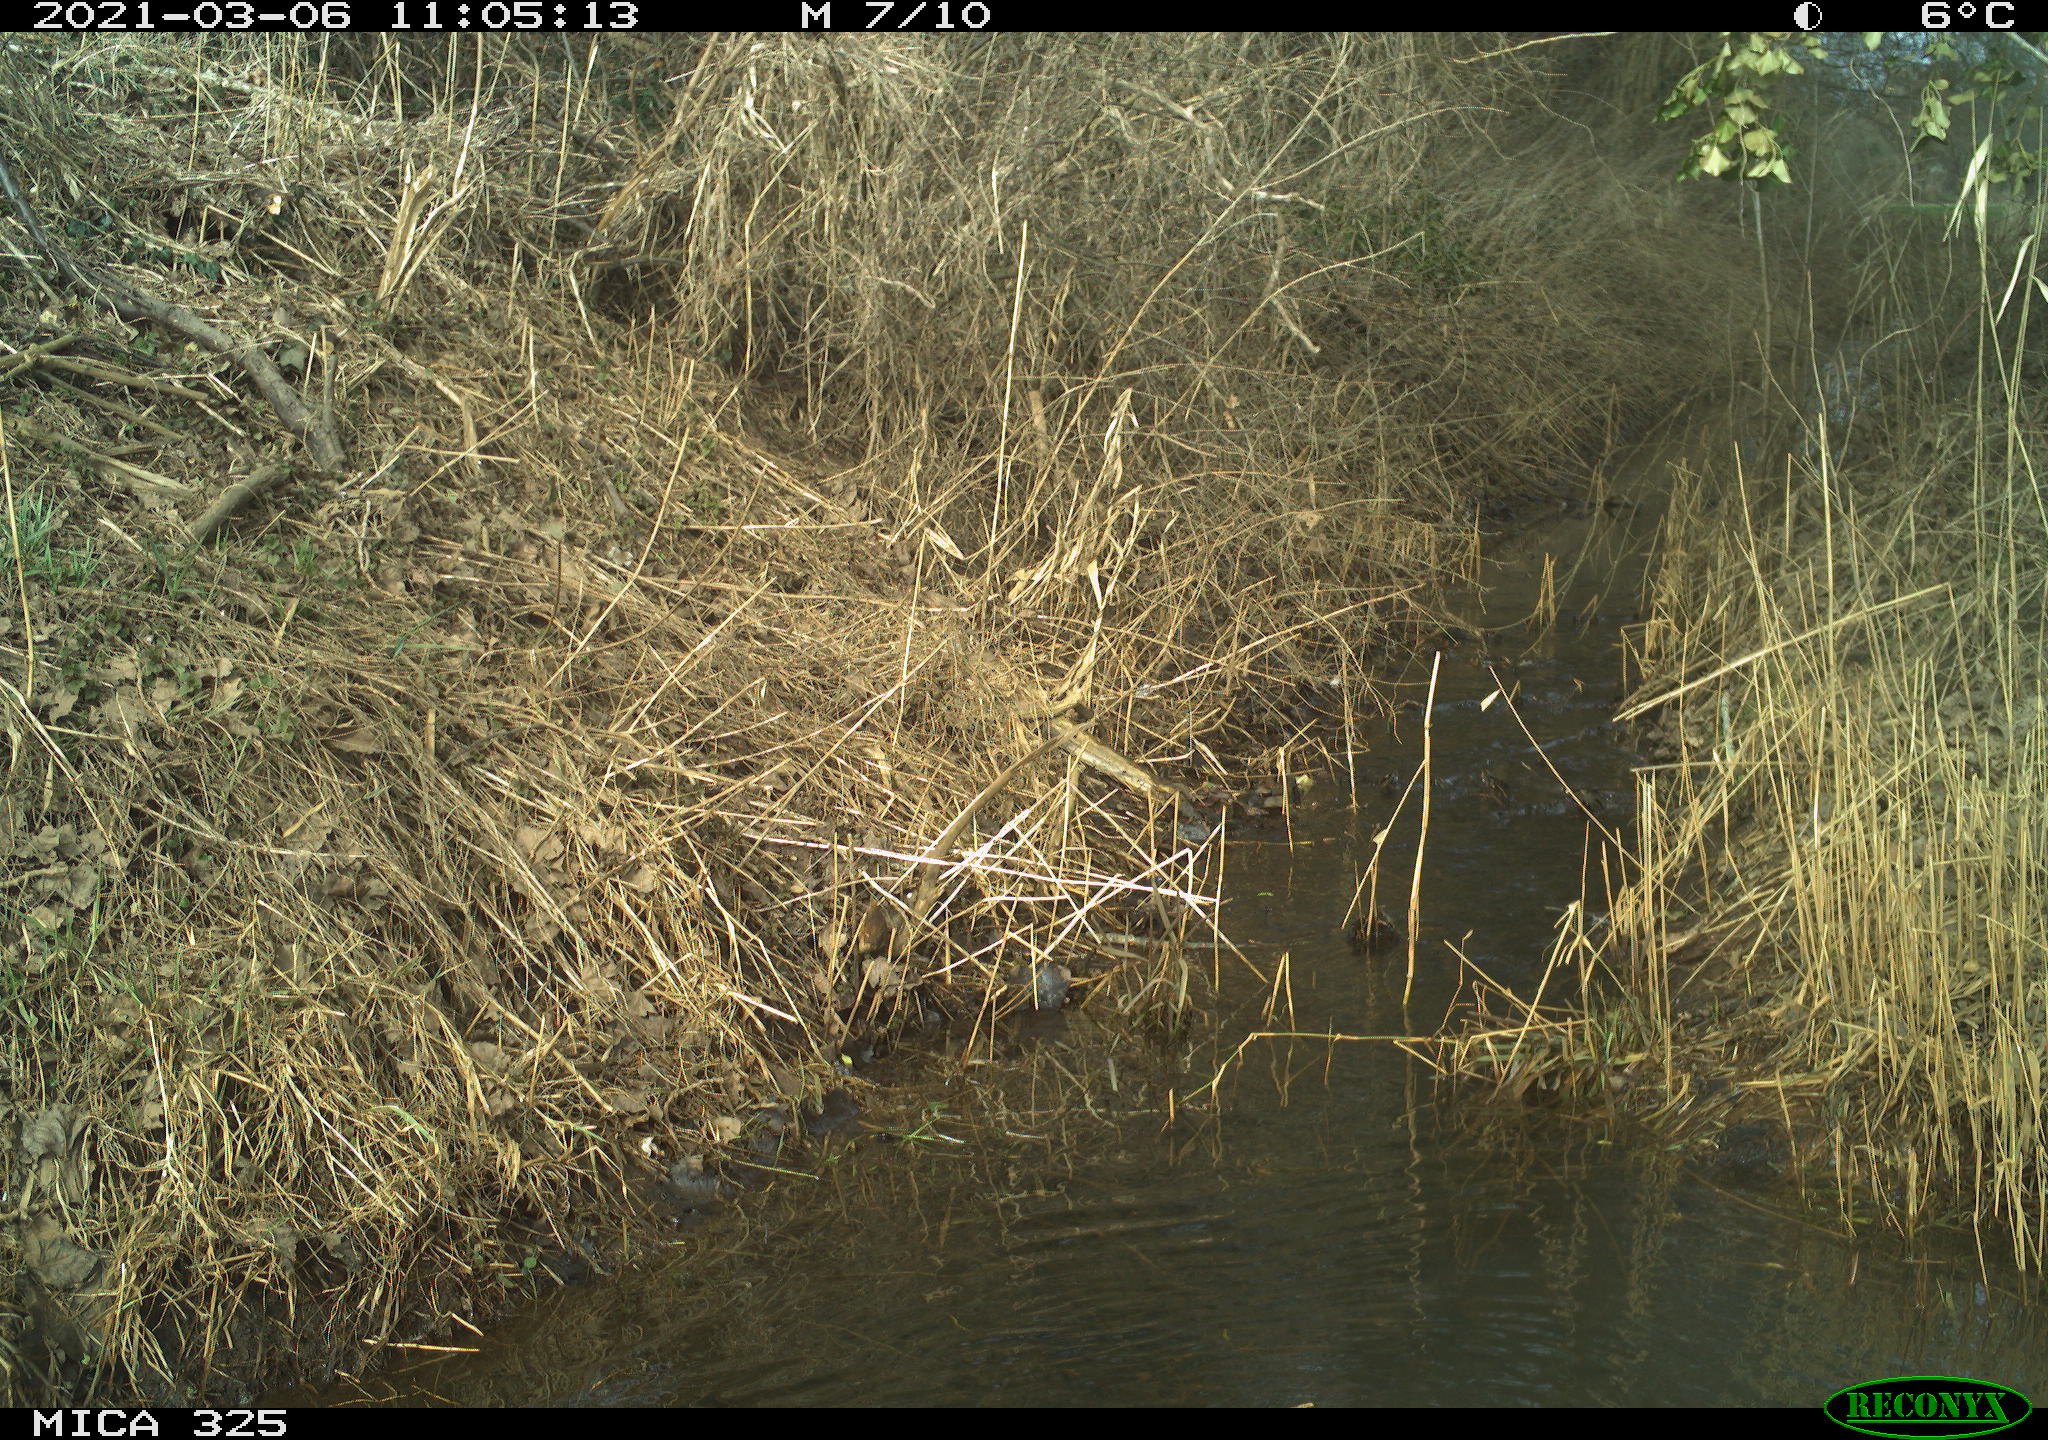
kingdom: Animalia
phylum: Chordata
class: Aves
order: Pelecaniformes
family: Ardeidae
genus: Ardea
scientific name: Ardea cinerea
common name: Grey heron
